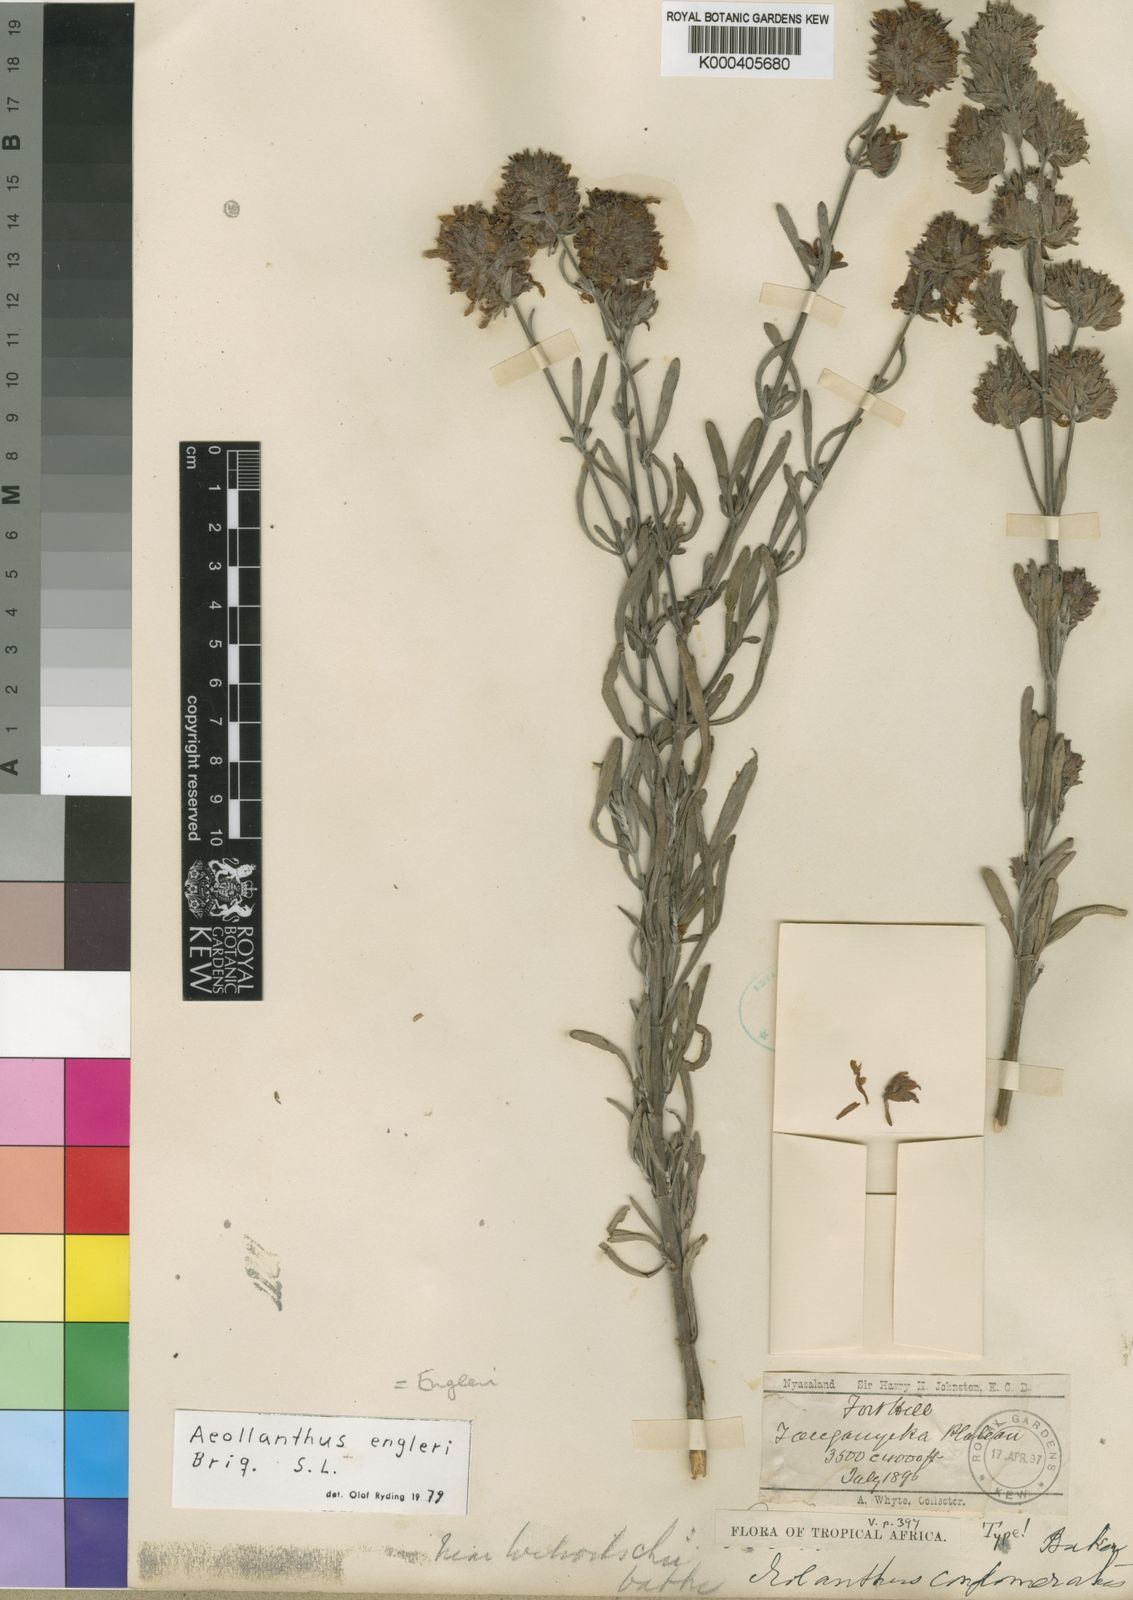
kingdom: Plantae
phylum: Tracheophyta
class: Magnoliopsida
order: Lamiales
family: Lamiaceae
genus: Aeollanthus
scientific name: Aeollanthus engleri
